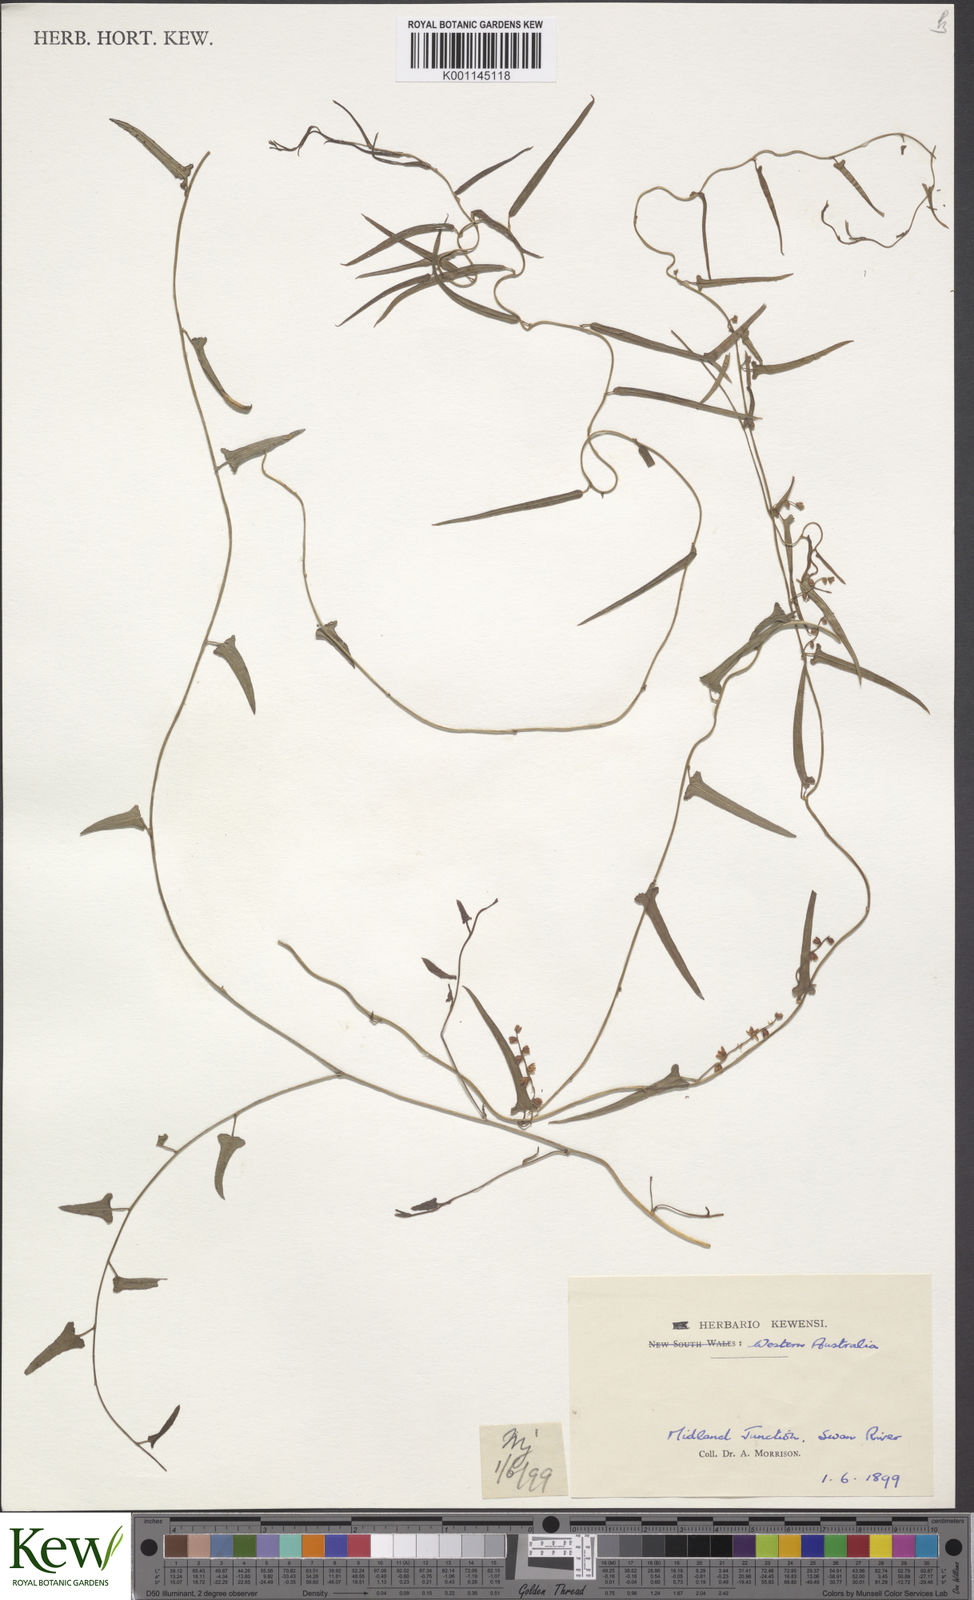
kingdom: Plantae
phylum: Tracheophyta
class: Liliopsida
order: Dioscoreales
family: Dioscoreaceae
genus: Dioscorea
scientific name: Dioscorea hastifolia
